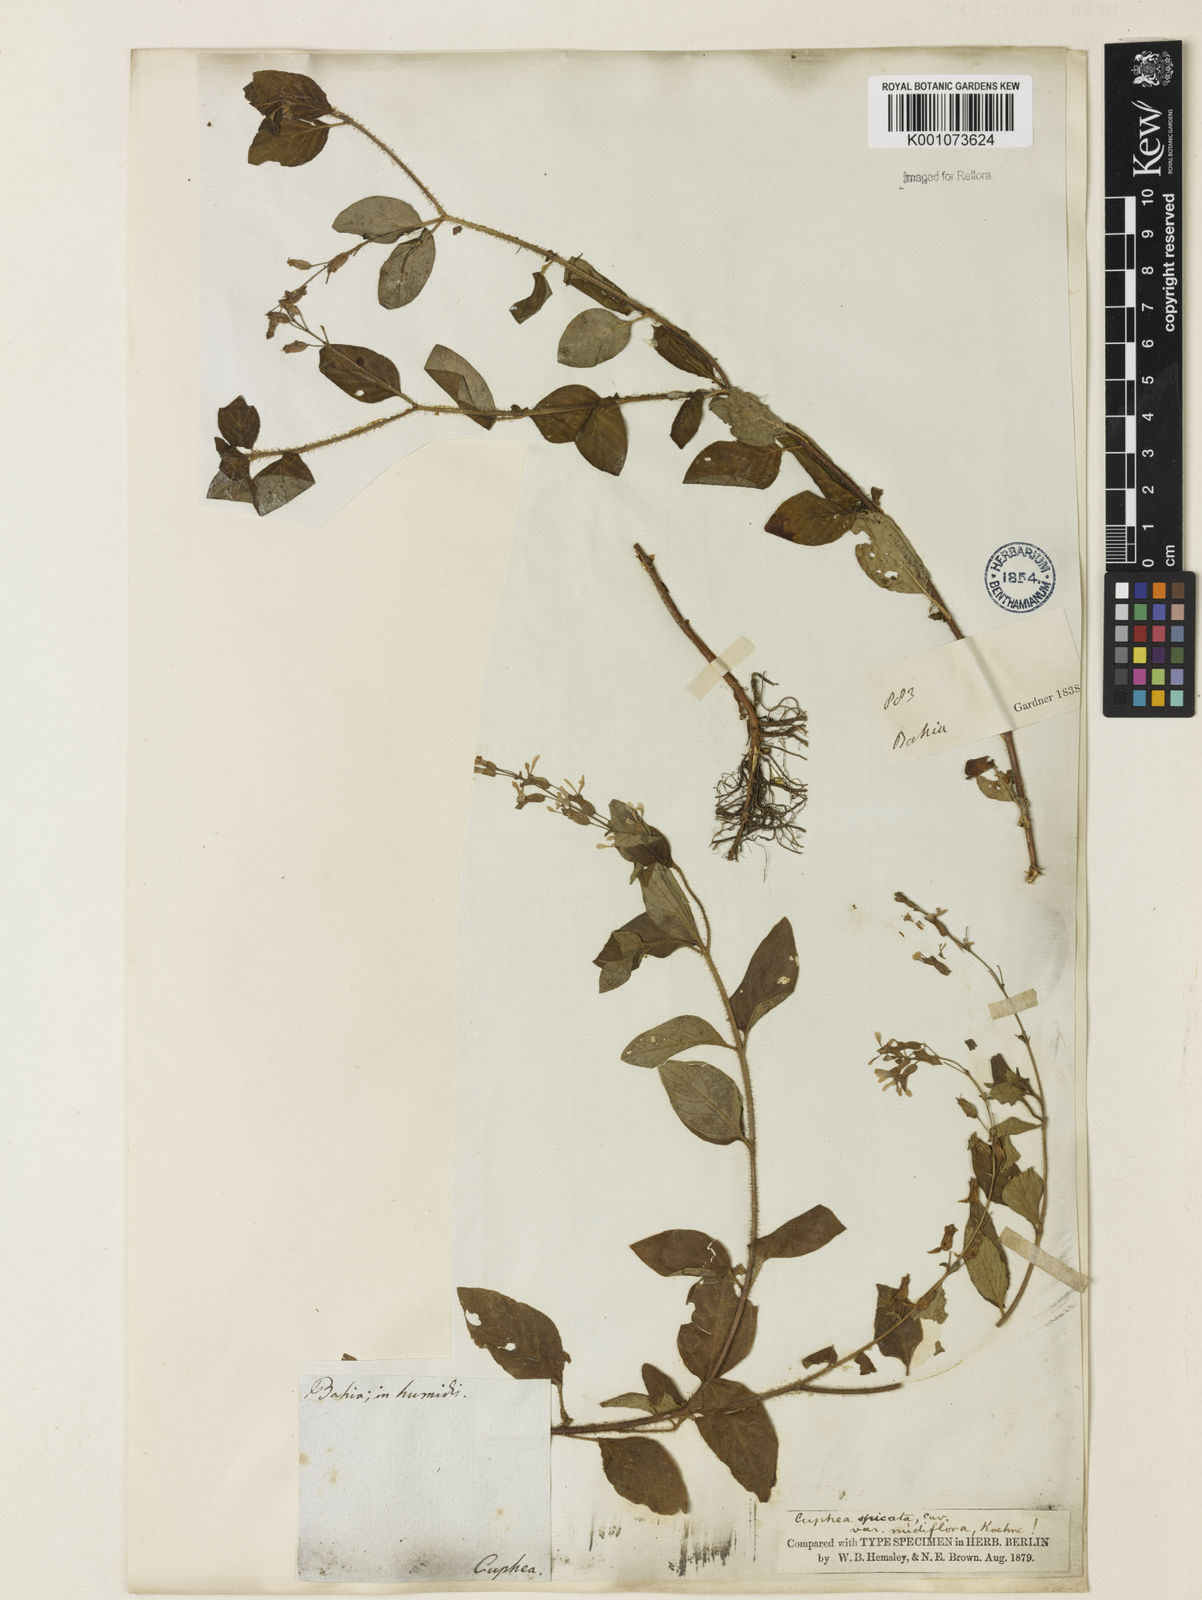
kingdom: Plantae
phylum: Tracheophyta
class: Magnoliopsida
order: Myrtales
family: Lythraceae
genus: Cuphea
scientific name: Cuphea racemosa
